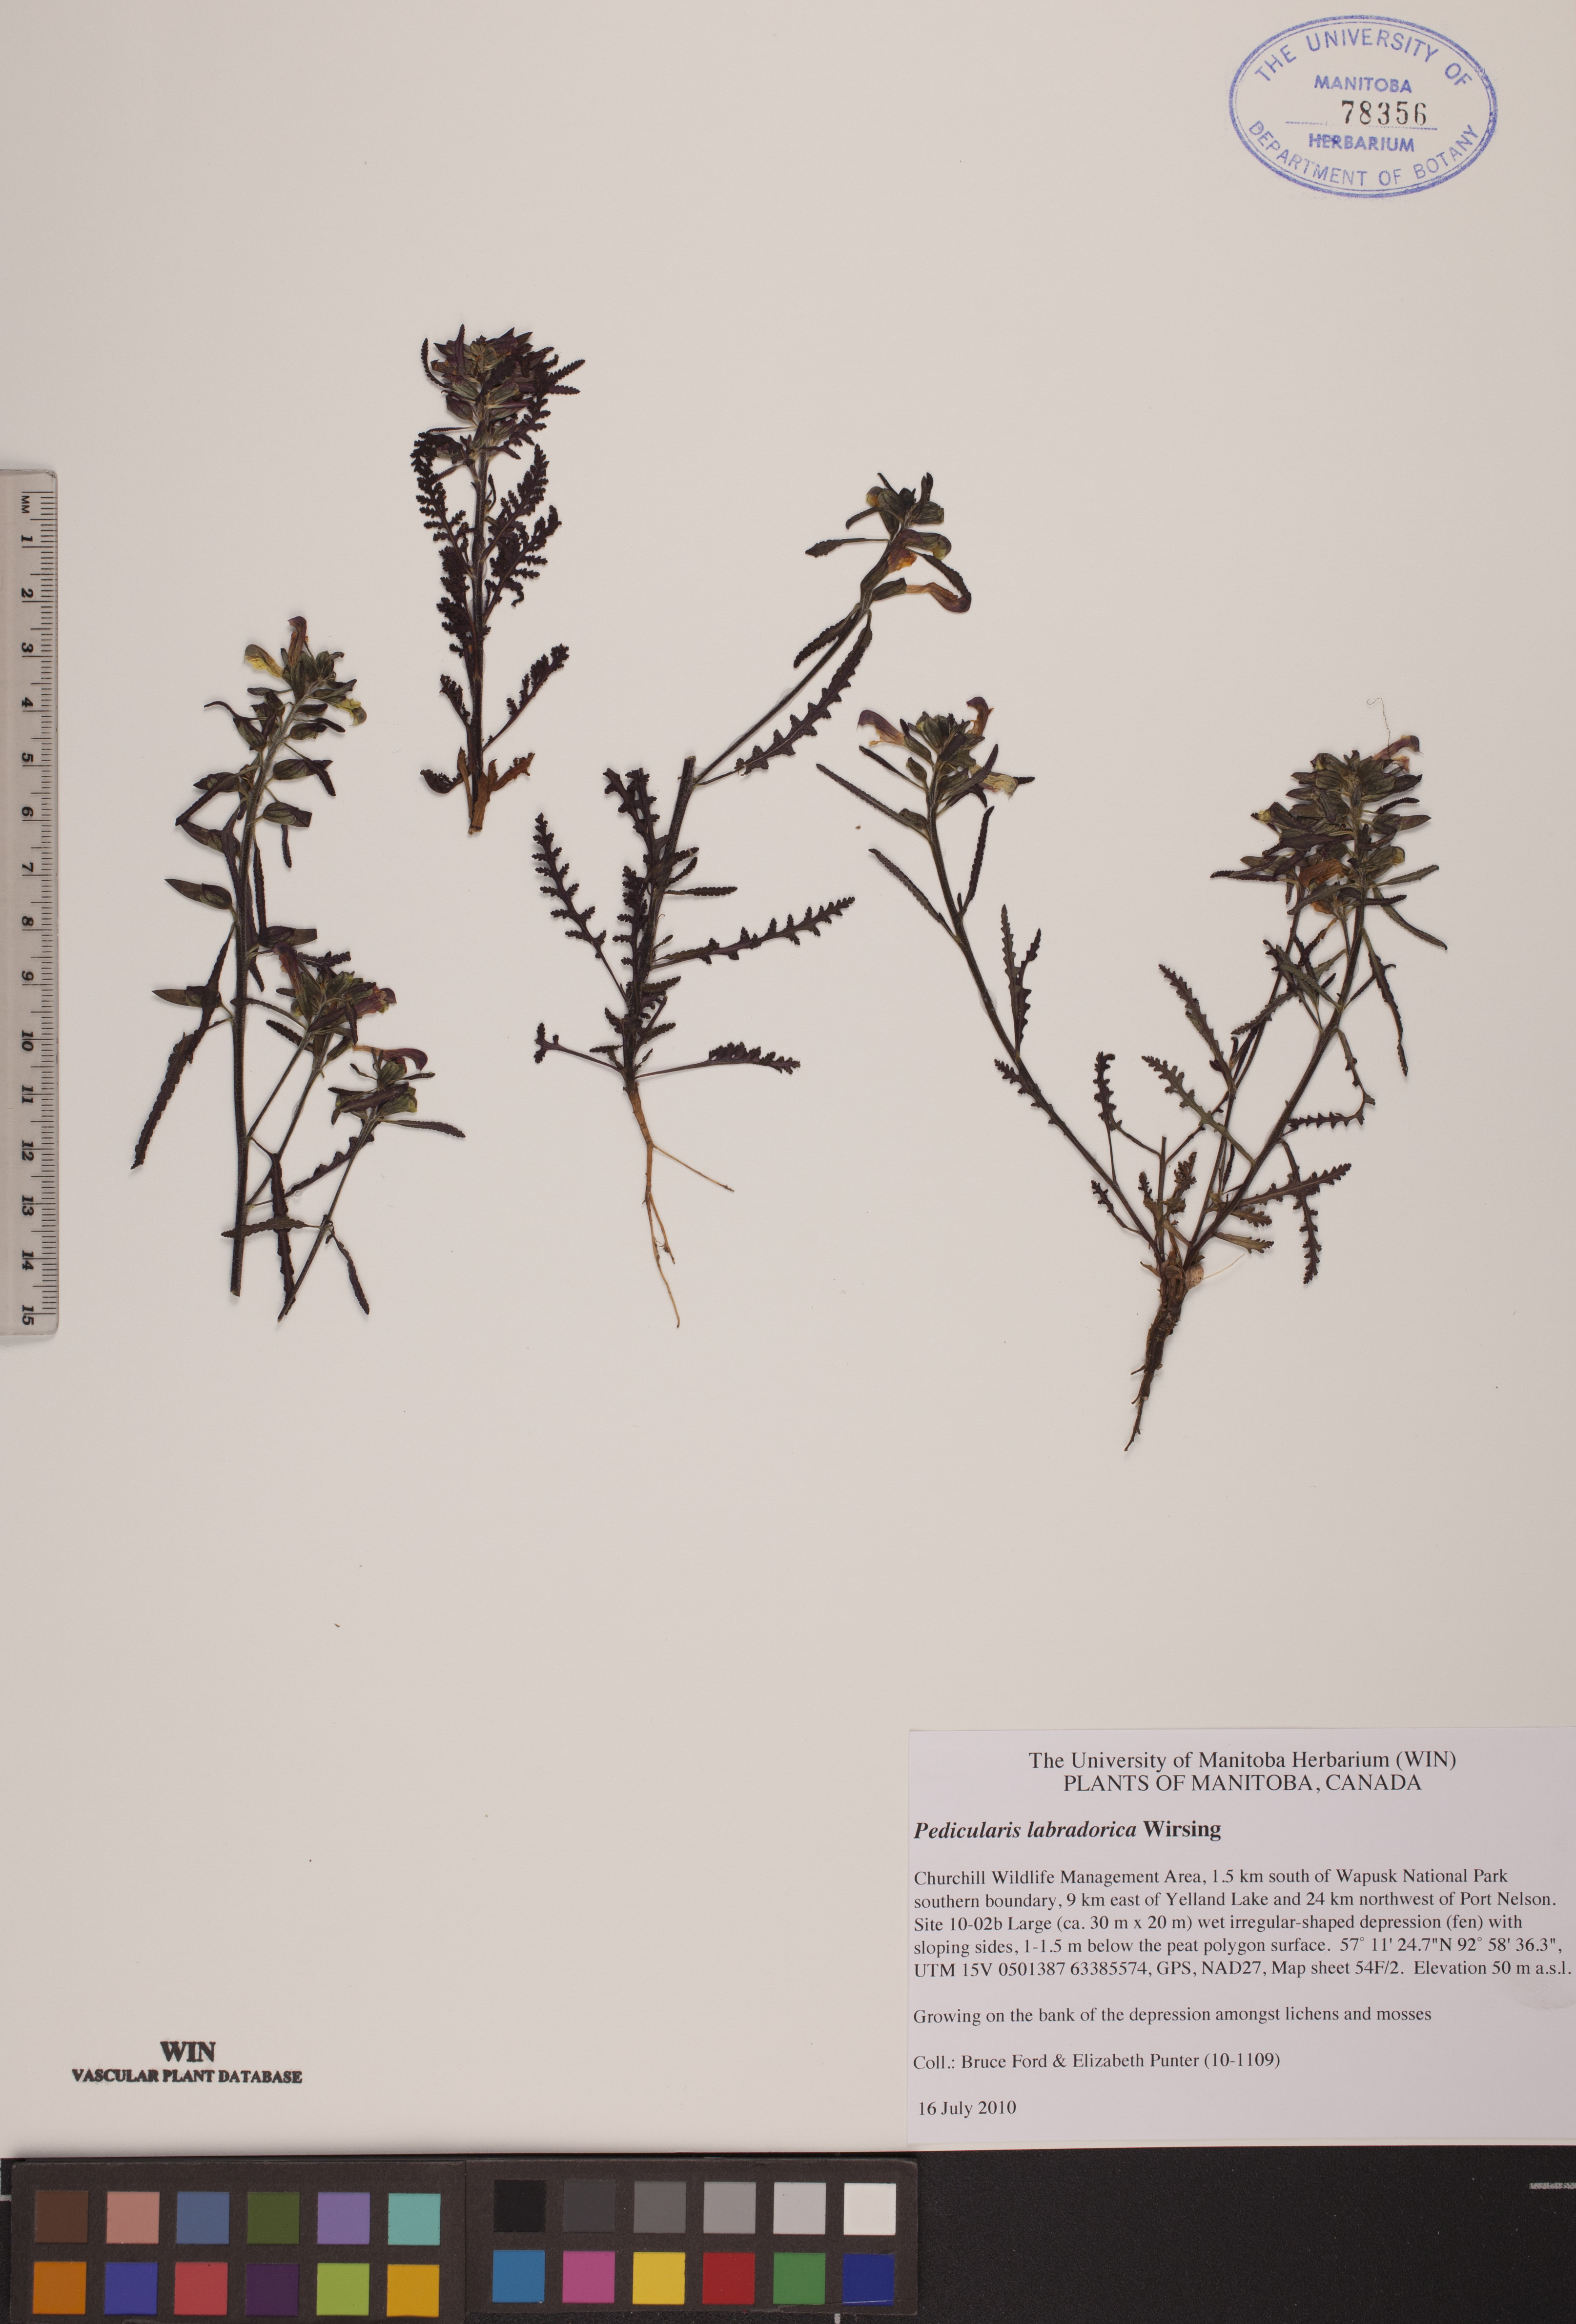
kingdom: Plantae
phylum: Tracheophyta
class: Magnoliopsida
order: Lamiales
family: Orobanchaceae
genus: Pedicularis
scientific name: Pedicularis labradorica
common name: Labrador lousewort
